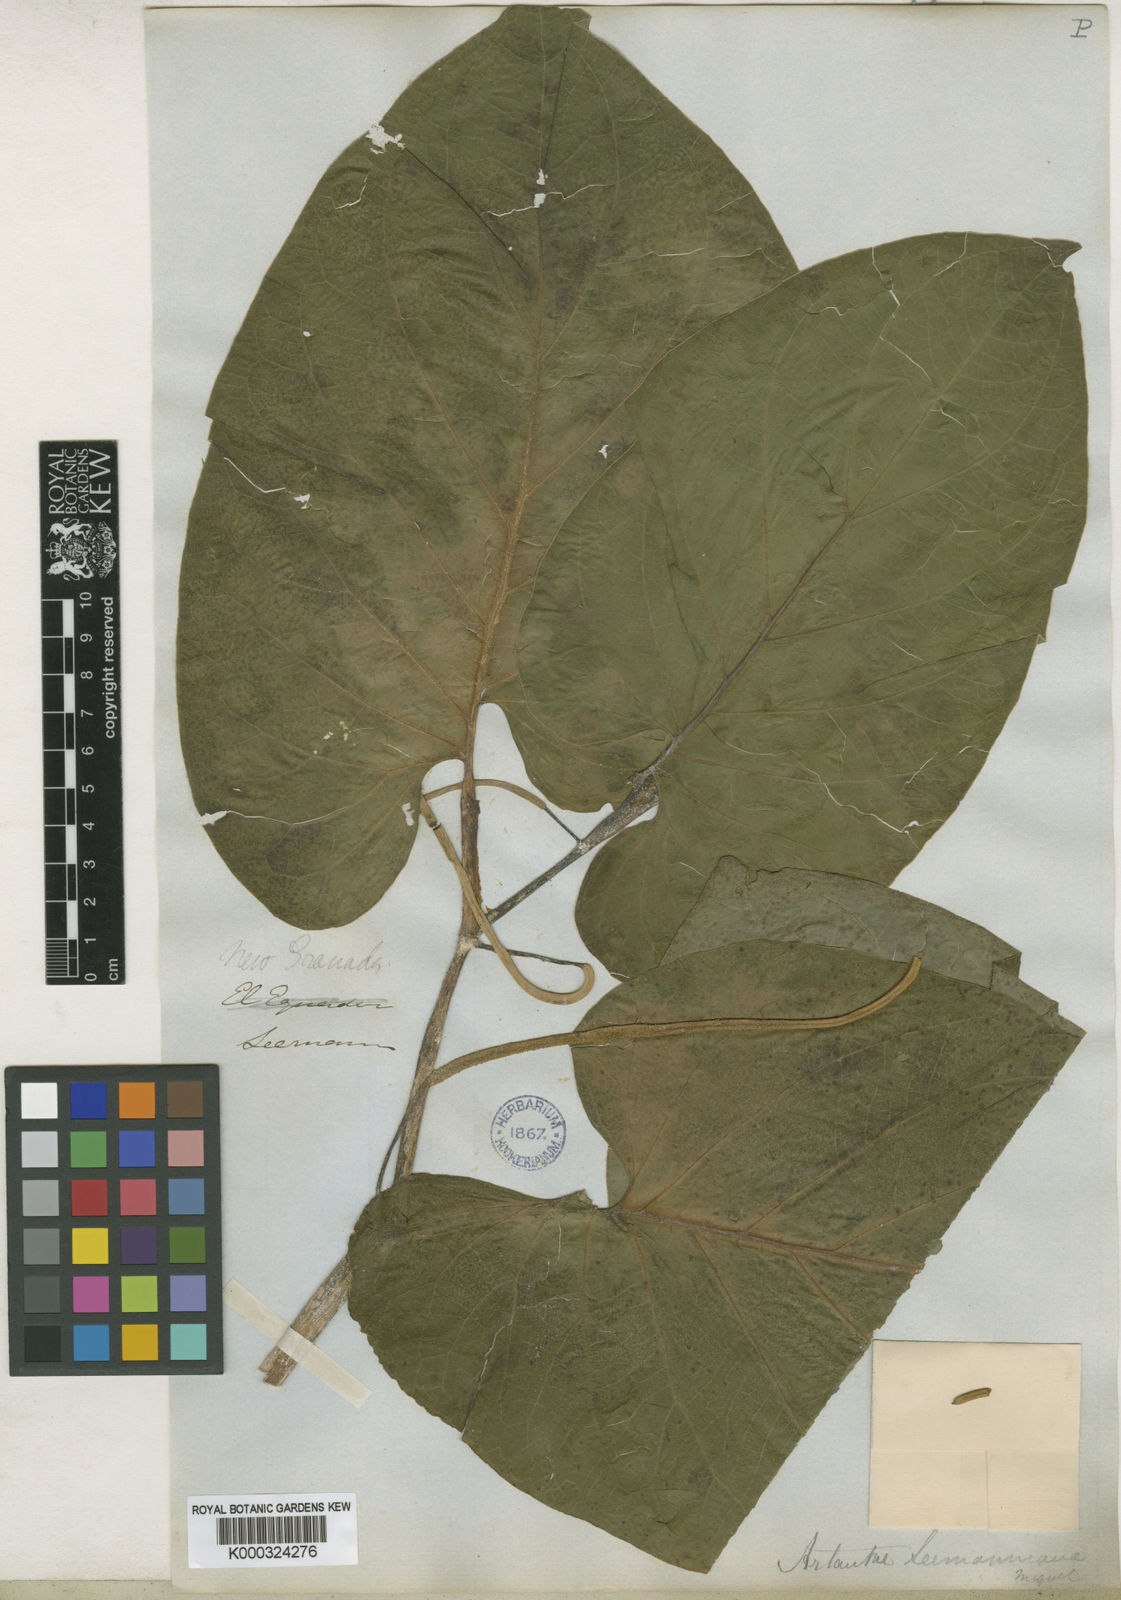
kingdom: Plantae
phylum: Tracheophyta
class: Magnoliopsida
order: Piperales
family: Piperaceae
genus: Piper
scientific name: Piper auritum
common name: Vera cruz pepper
